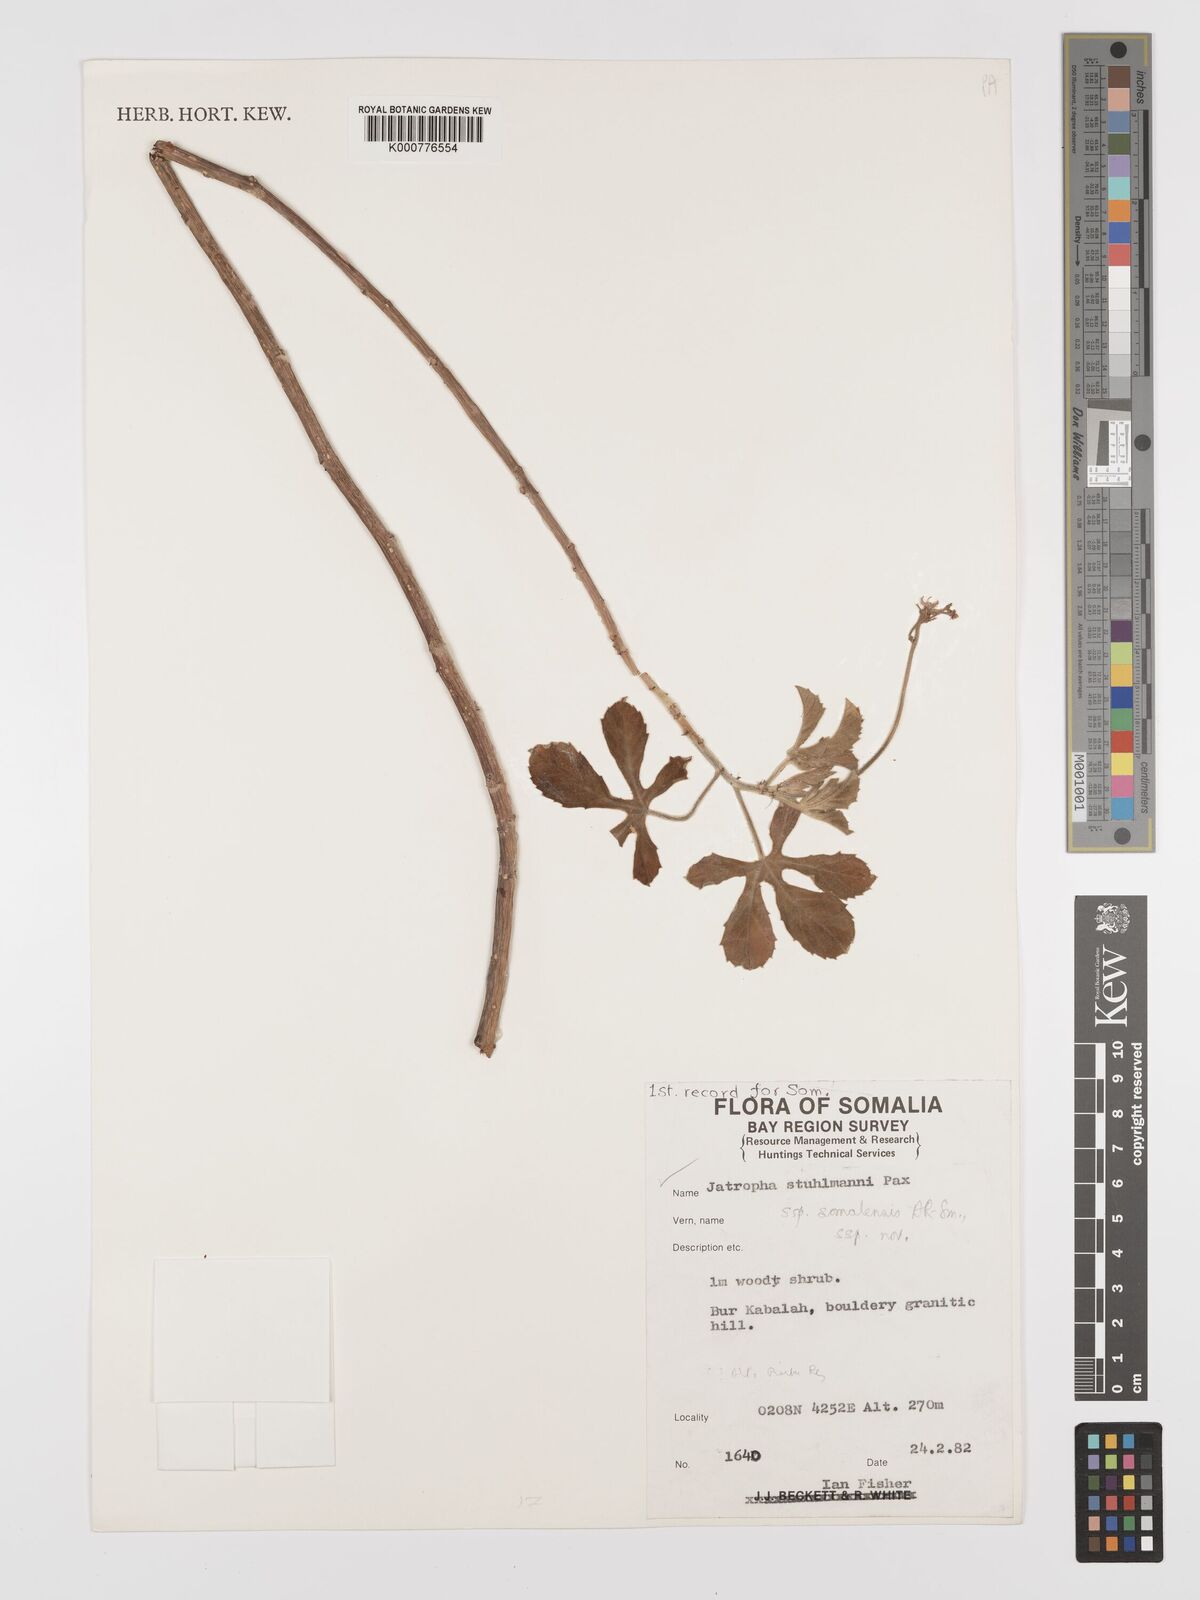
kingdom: Plantae
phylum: Tracheophyta
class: Magnoliopsida
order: Malpighiales
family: Euphorbiaceae
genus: Jatropha
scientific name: Jatropha stuhlmannii
